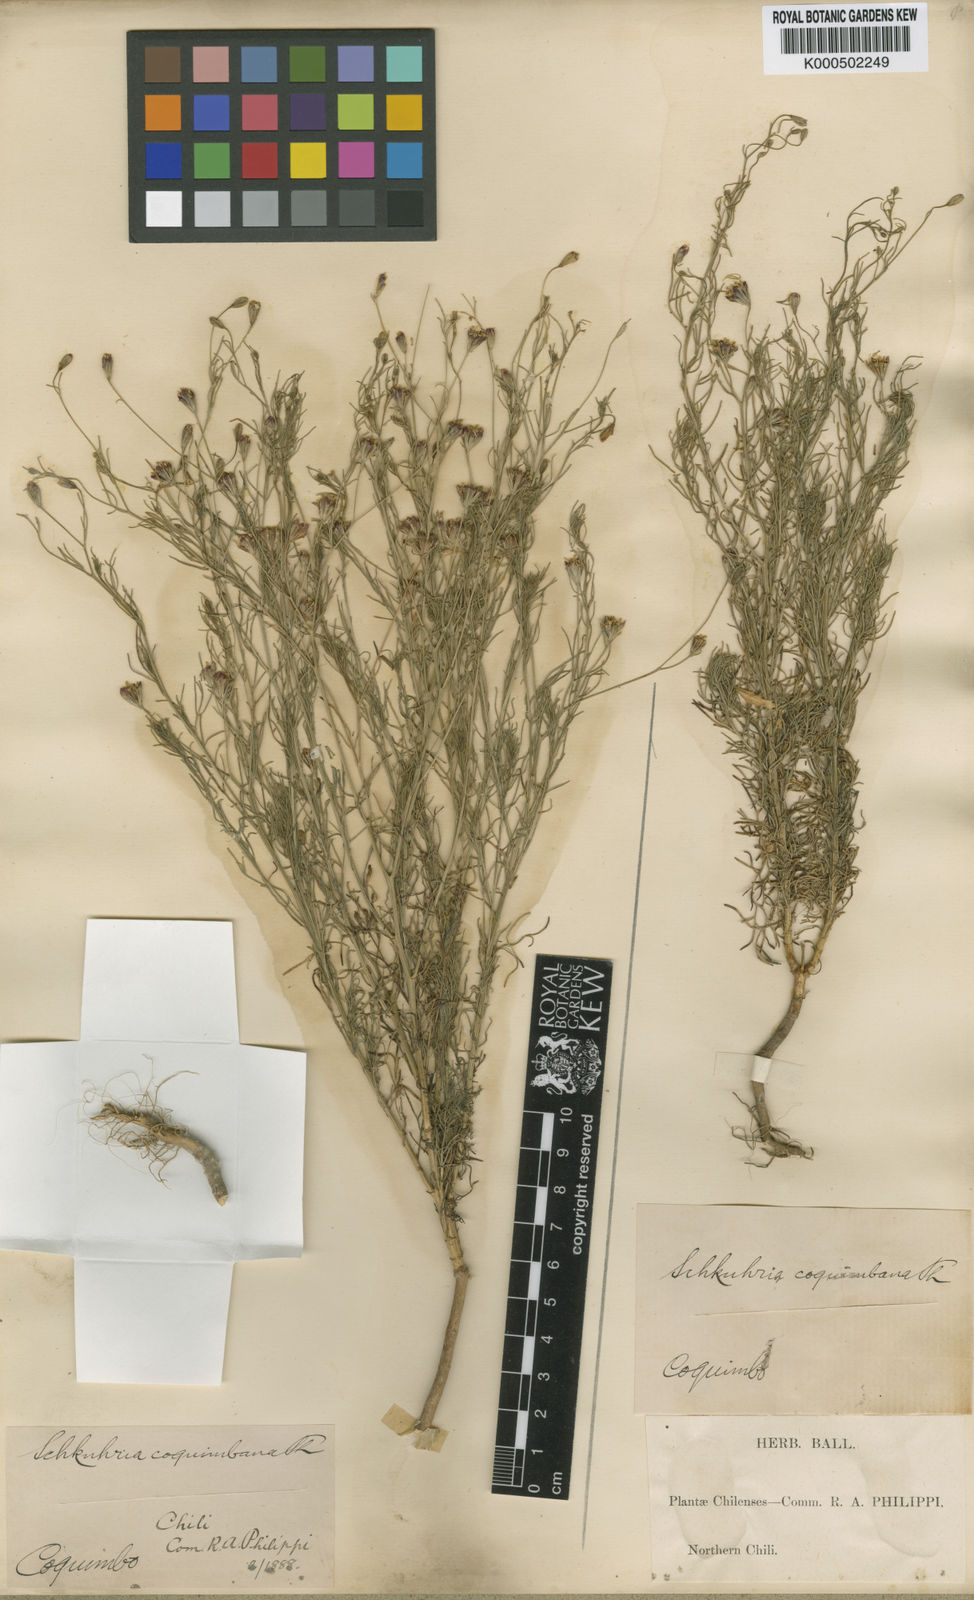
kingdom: Plantae
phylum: Tracheophyta
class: Magnoliopsida
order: Asterales
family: Asteraceae
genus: Schkuhria
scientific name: Schkuhria
